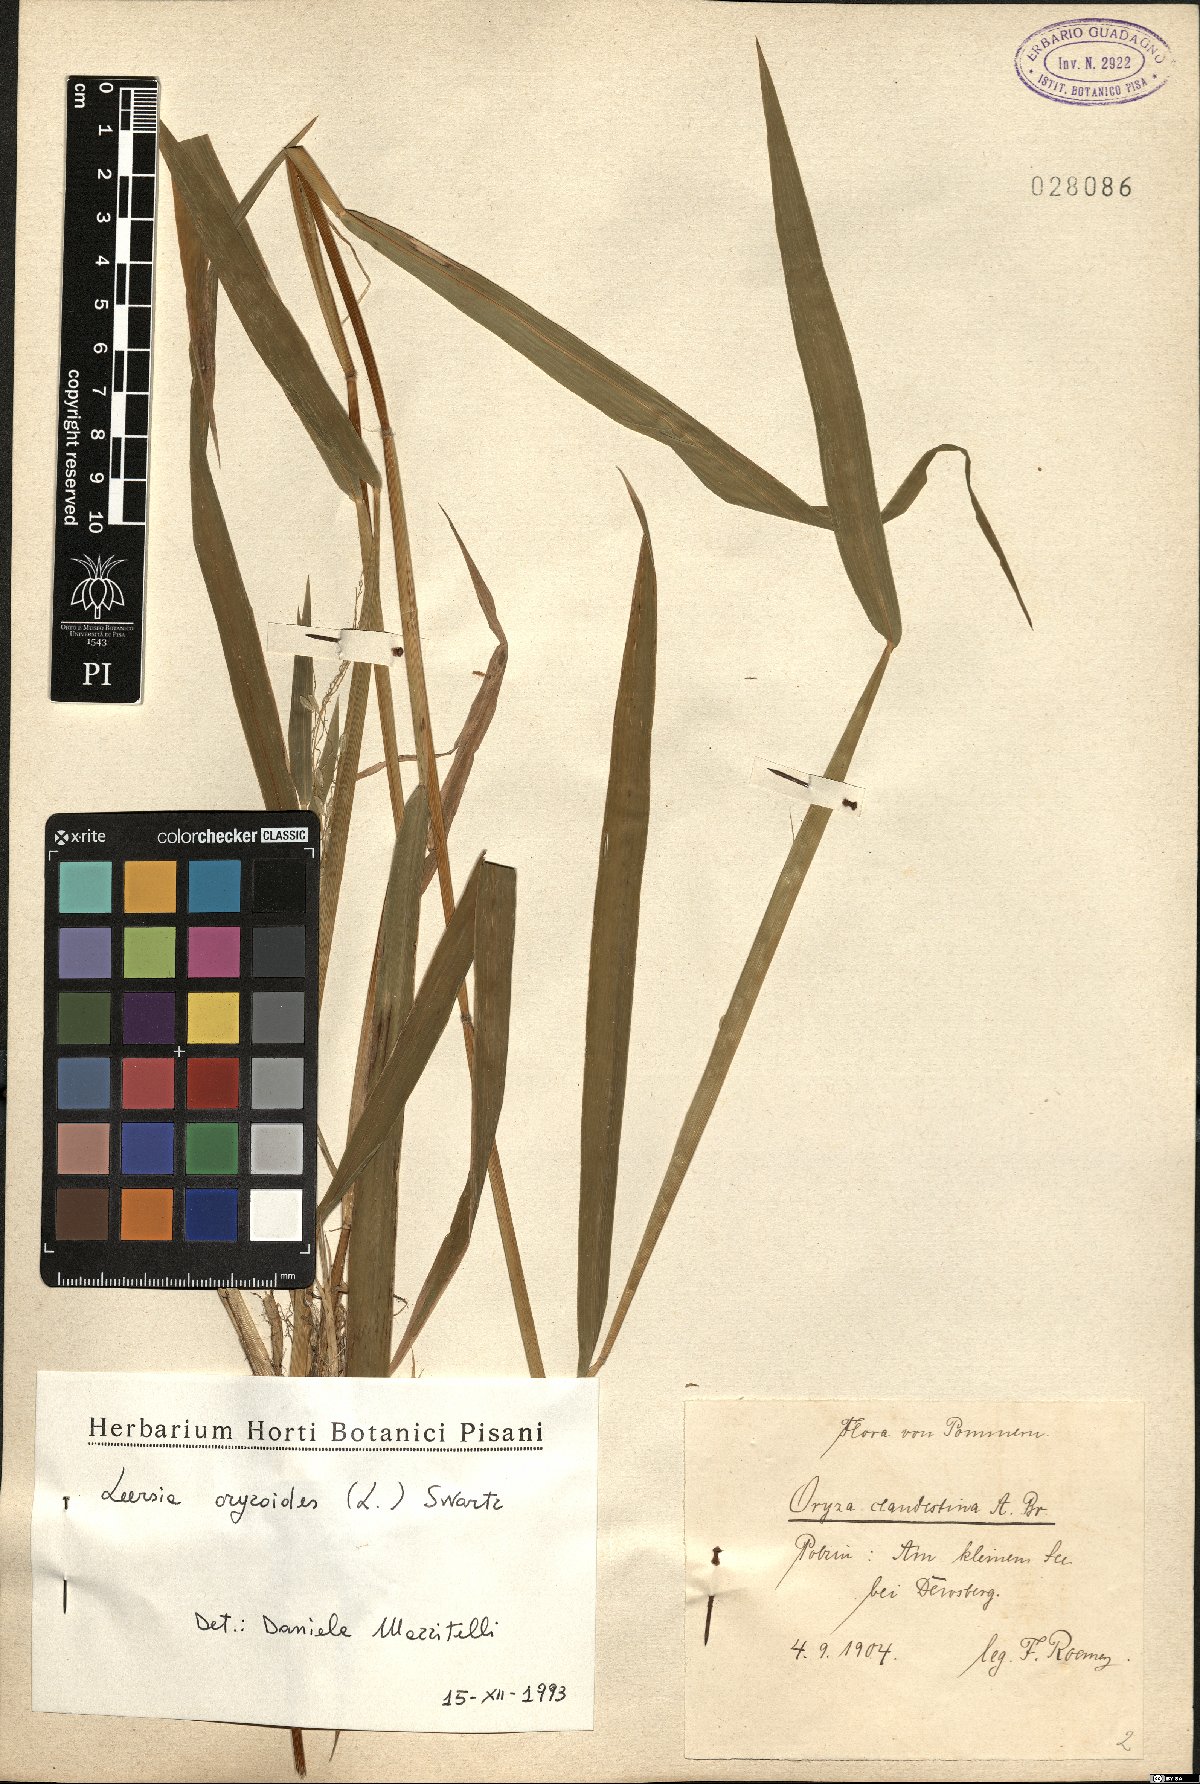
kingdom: Plantae
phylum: Tracheophyta
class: Liliopsida
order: Poales
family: Poaceae
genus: Leersia
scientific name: Leersia oryzoides
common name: Cut-grass
